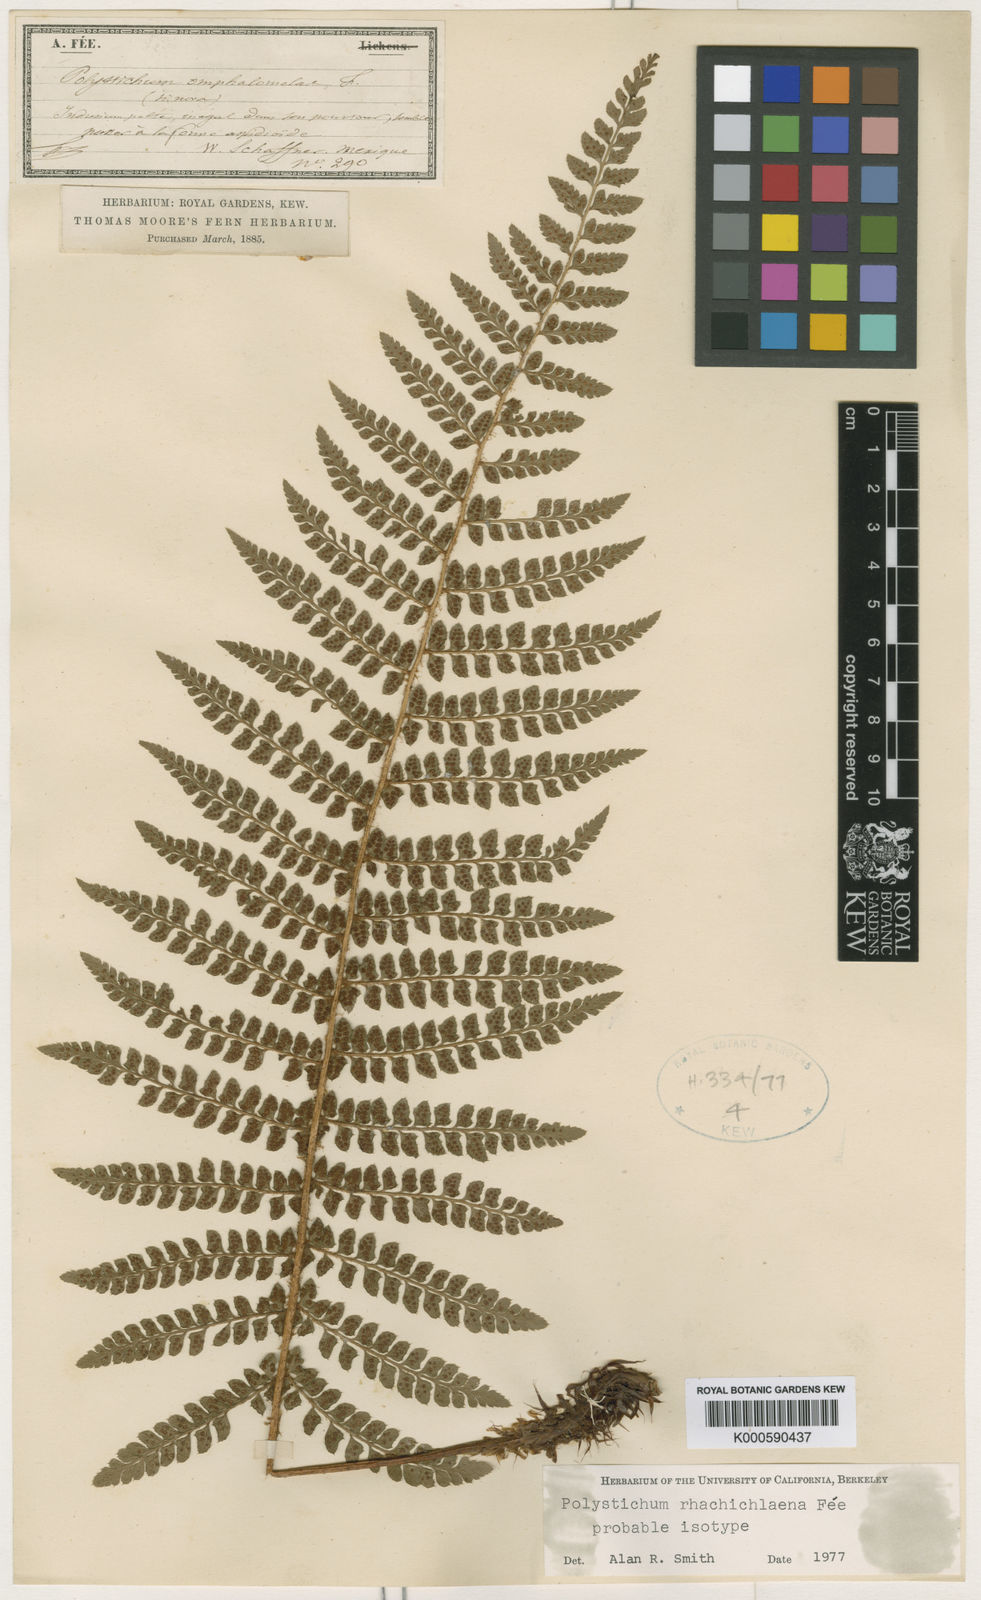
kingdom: Plantae
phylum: Tracheophyta
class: Polypodiopsida
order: Polypodiales
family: Dryopteridaceae
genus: Polystichum
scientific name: Polystichum
